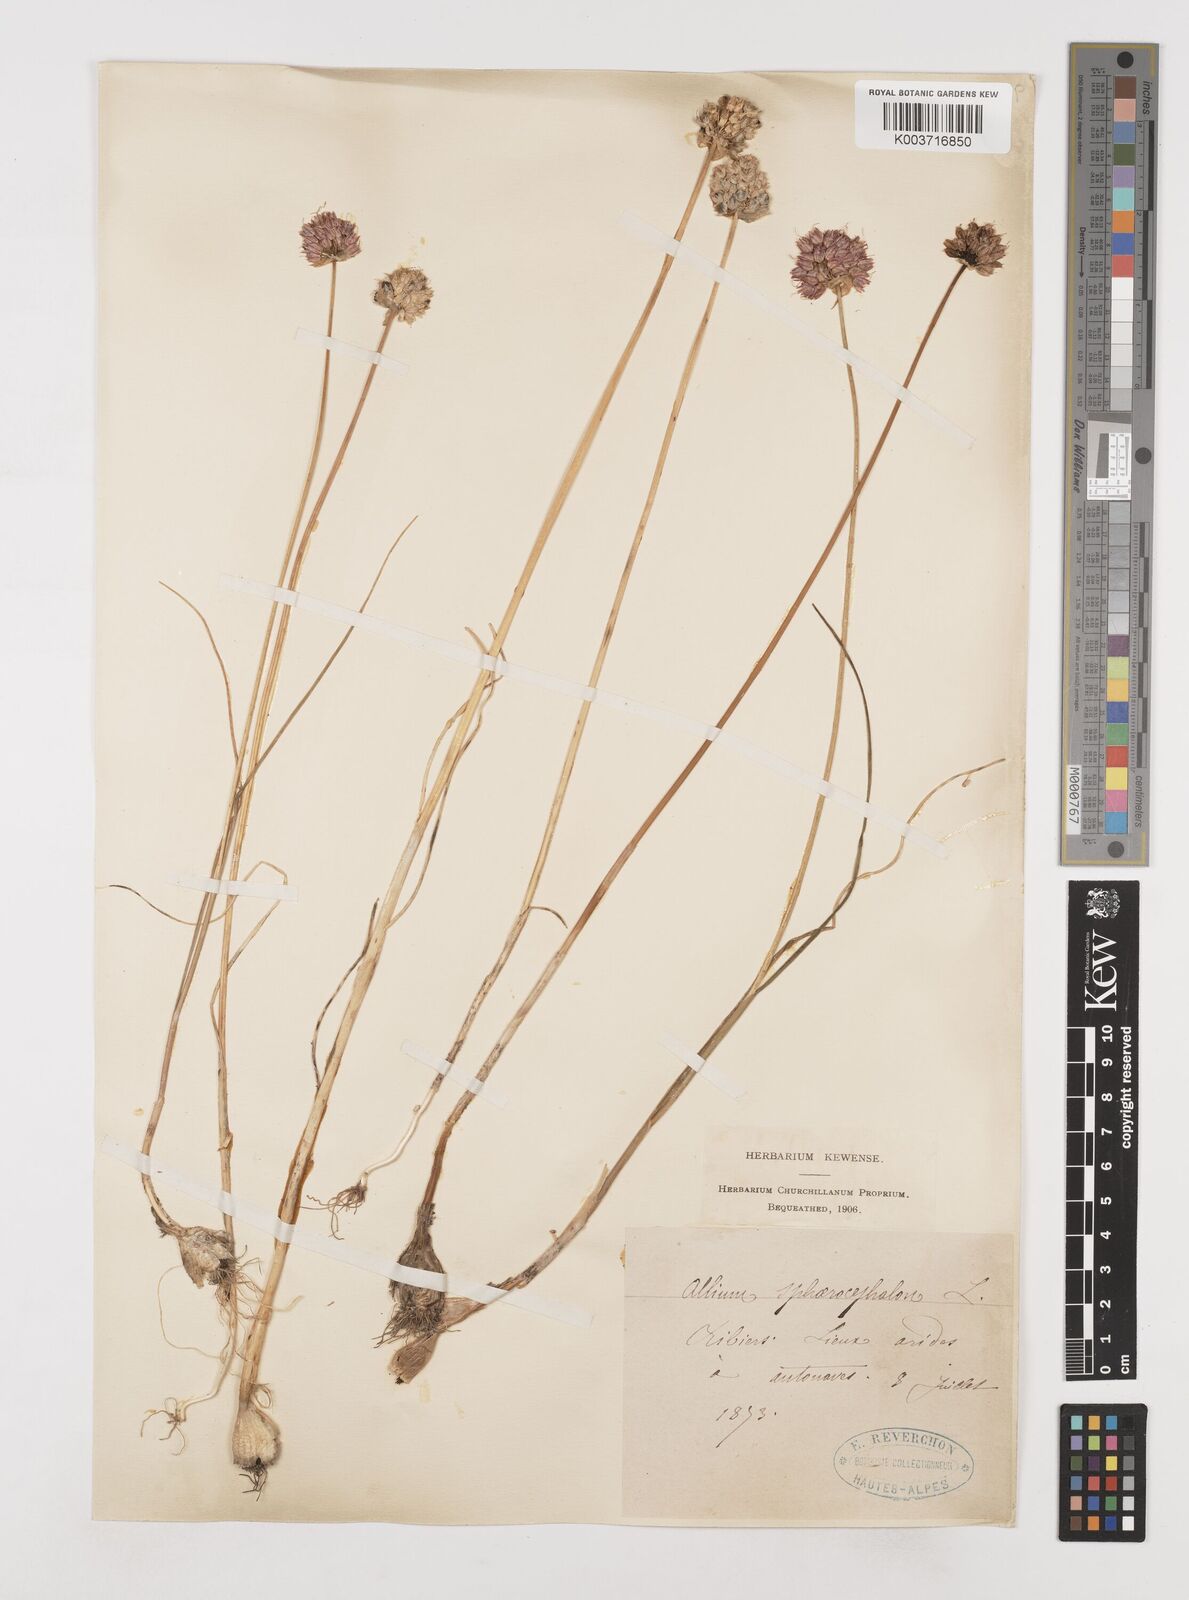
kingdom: Plantae
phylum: Tracheophyta
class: Liliopsida
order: Asparagales
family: Amaryllidaceae
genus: Allium
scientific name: Allium sphaerocephalon
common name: Round-headed leek
